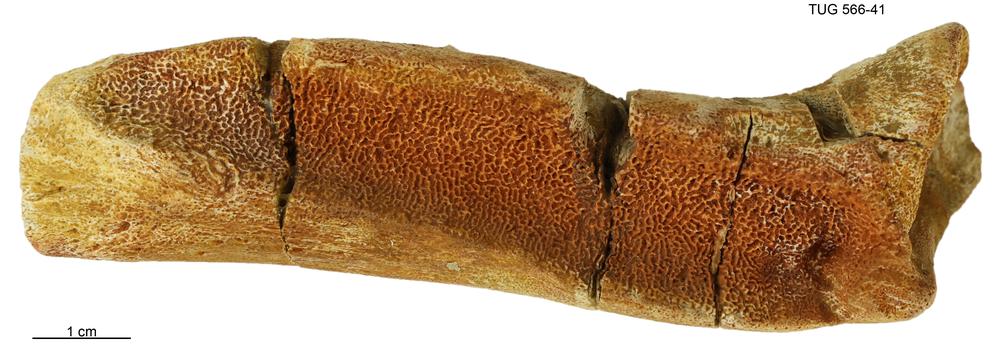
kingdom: Animalia
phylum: Chordata
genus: Homosteus
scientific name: Homosteus sulcatus
